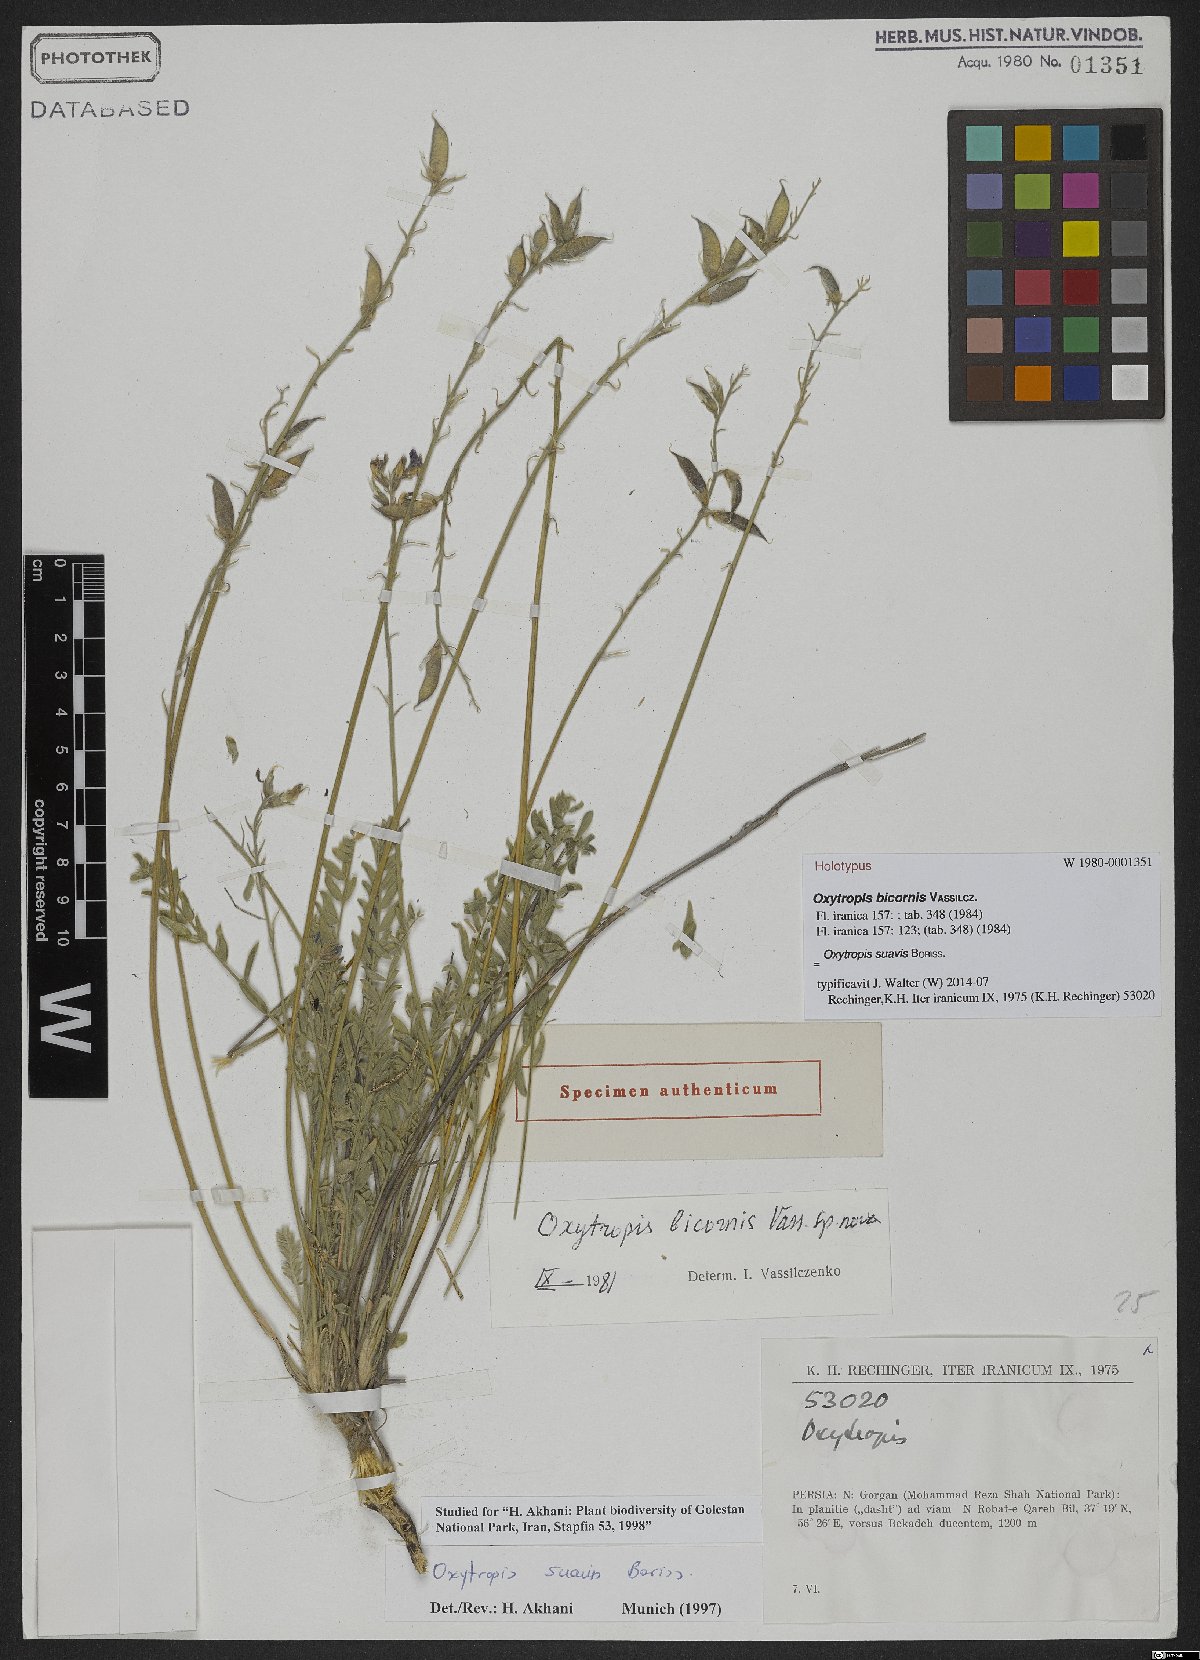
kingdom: Plantae
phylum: Tracheophyta
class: Magnoliopsida
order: Fabales
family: Fabaceae
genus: Oxytropis
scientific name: Oxytropis suavis
